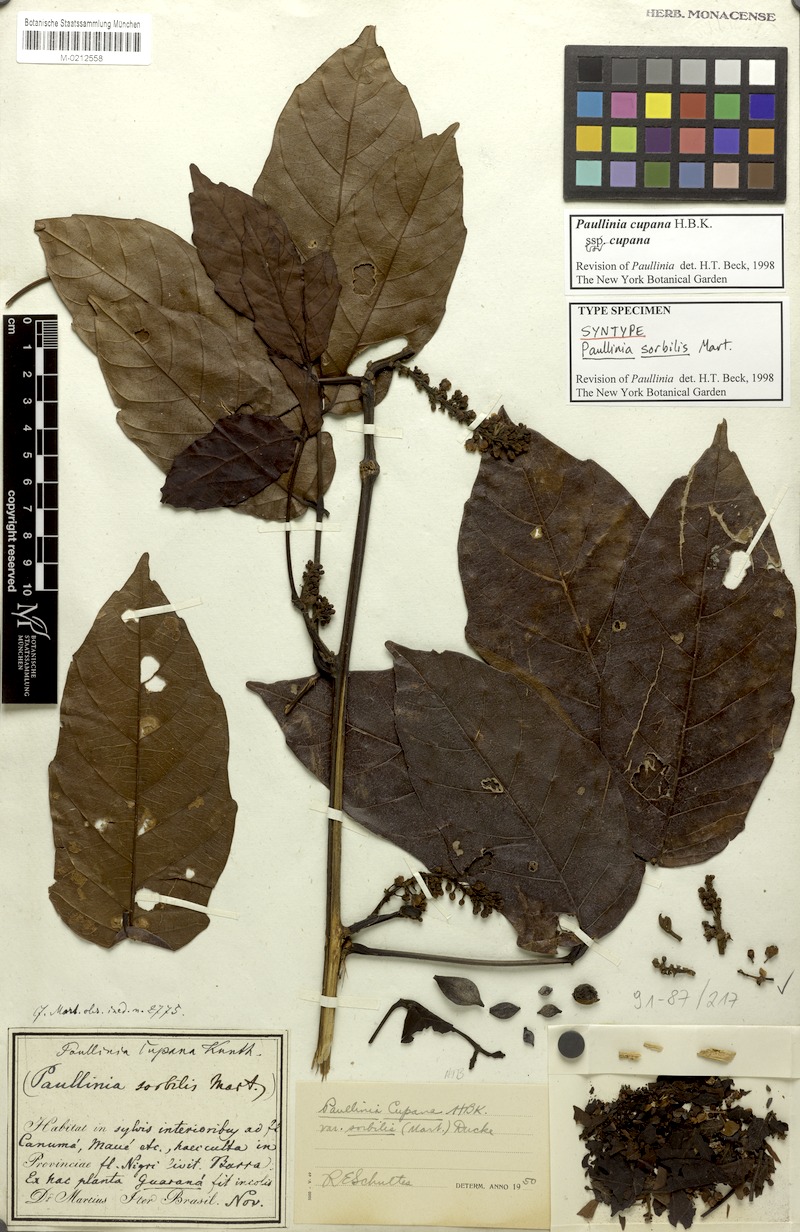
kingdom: Plantae
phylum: Tracheophyta
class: Magnoliopsida
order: Sapindales
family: Sapindaceae
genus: Paullinia
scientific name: Paullinia cupana
